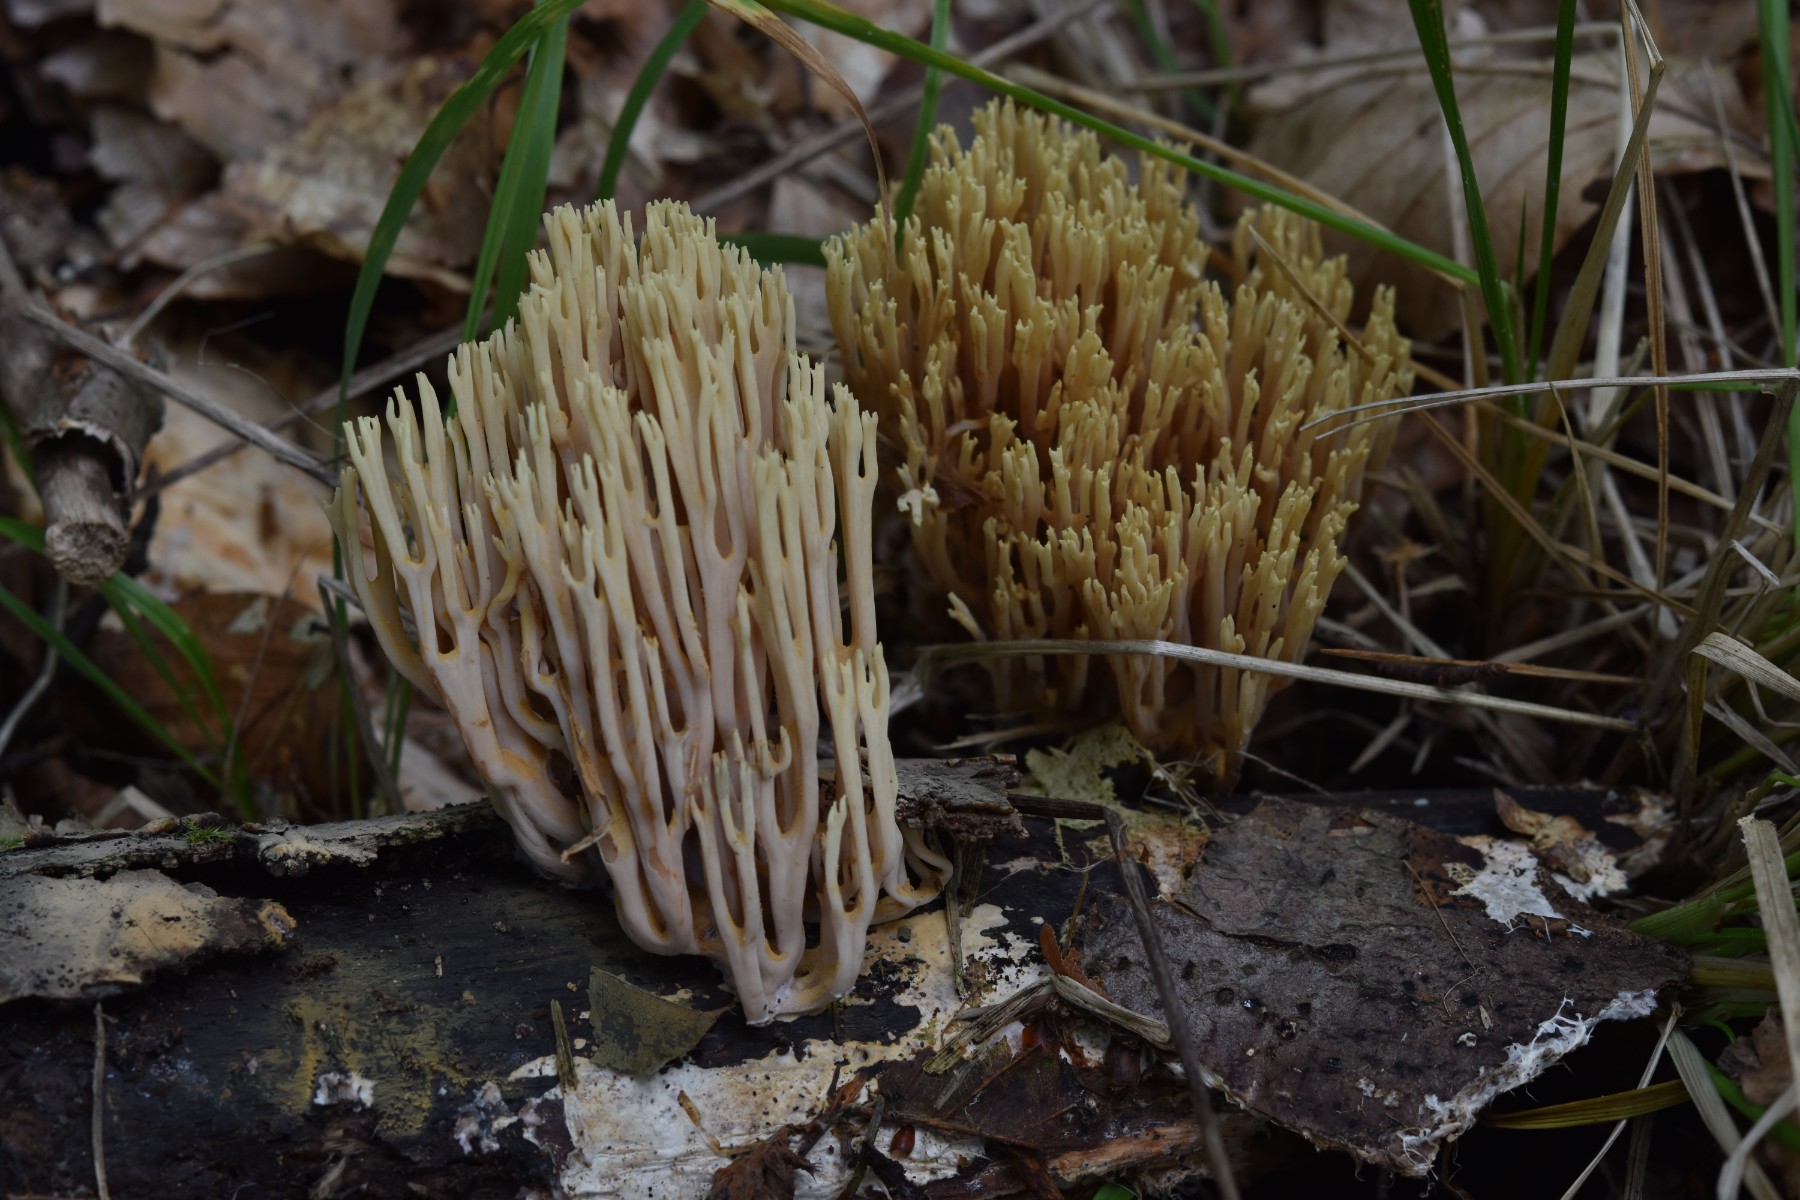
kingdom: Fungi
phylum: Basidiomycota
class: Agaricomycetes
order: Gomphales
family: Gomphaceae
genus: Ramaria
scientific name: Ramaria stricta
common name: rank koralsvamp
